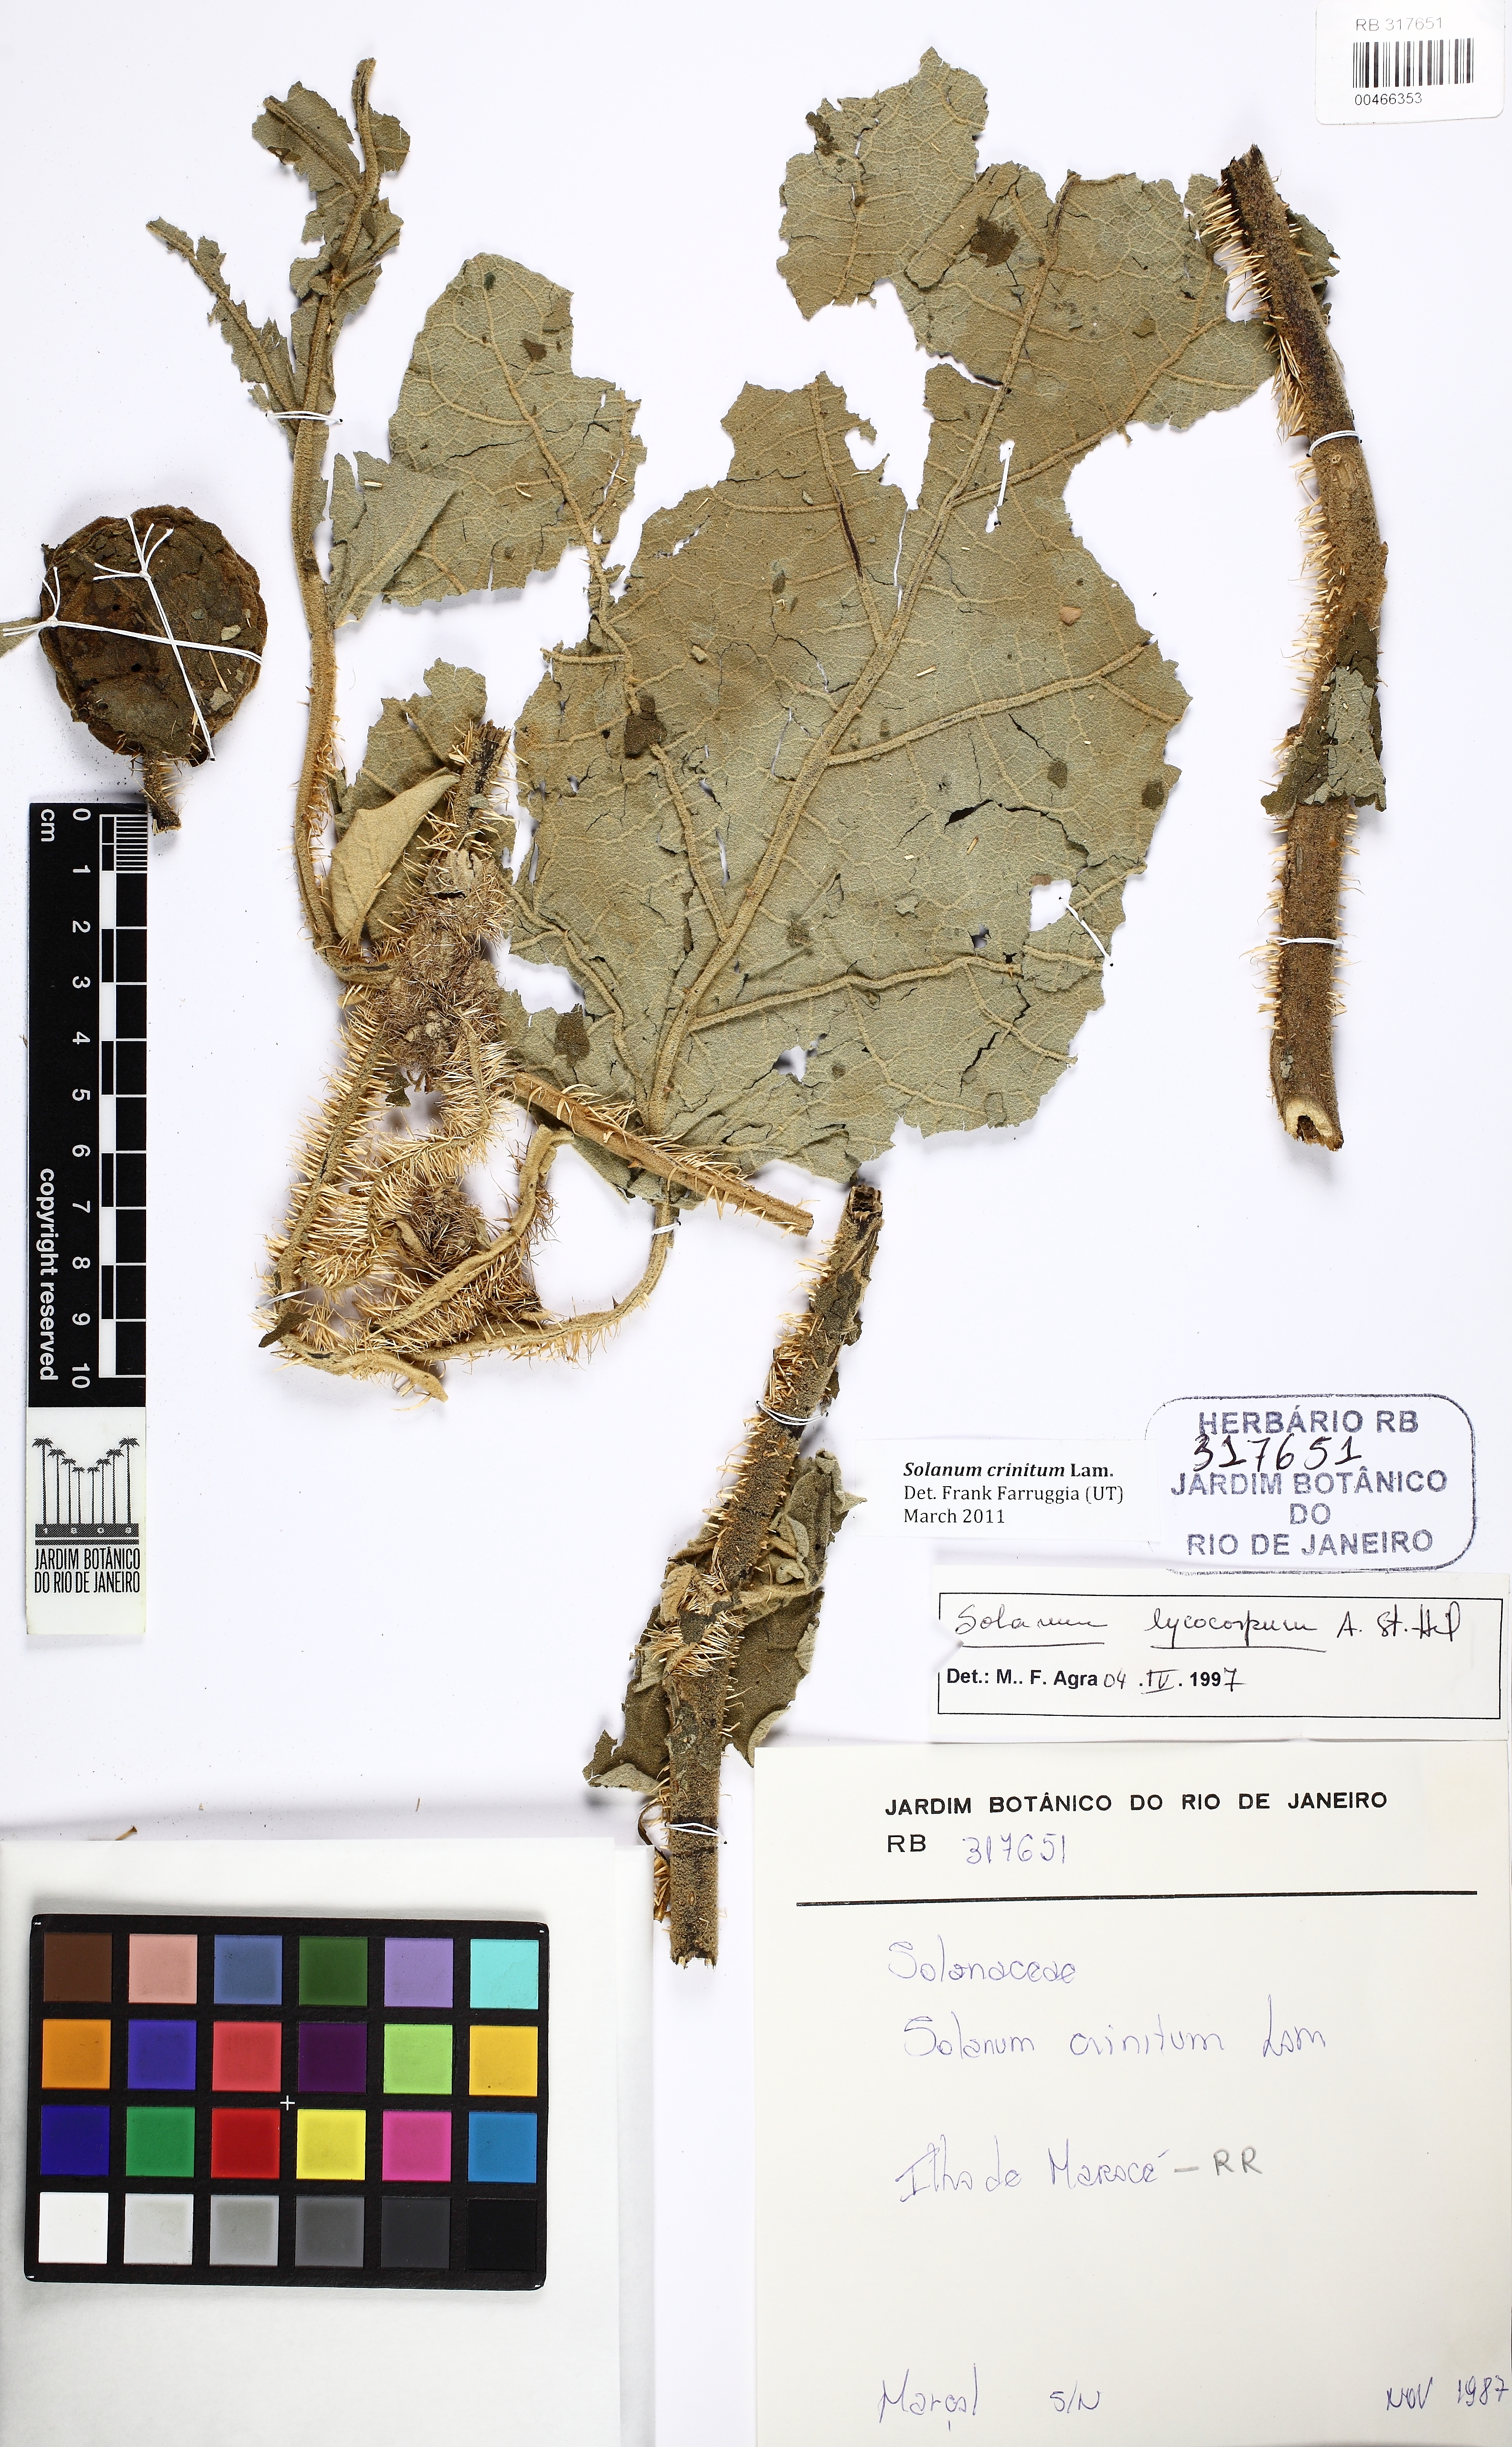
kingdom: Plantae
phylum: Tracheophyta
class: Magnoliopsida
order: Solanales
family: Solanaceae
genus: Solanum
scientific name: Solanum crinitum
